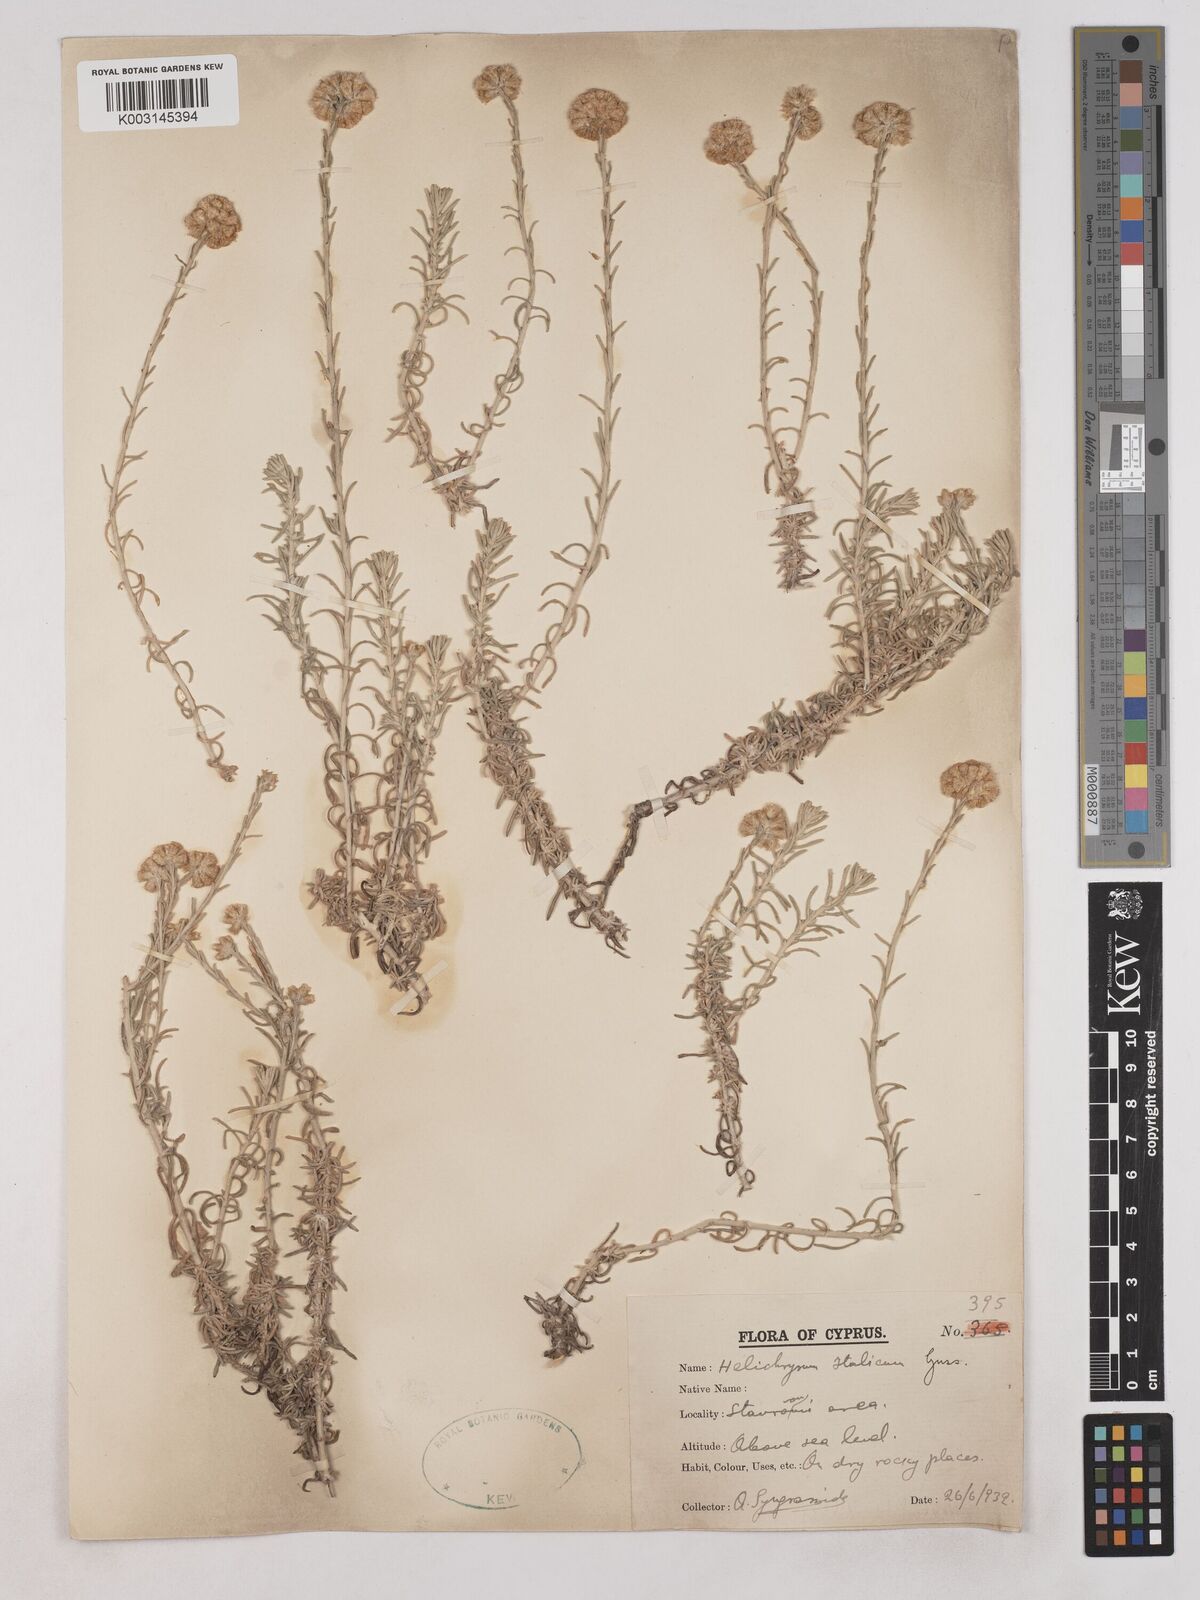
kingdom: Plantae
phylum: Tracheophyta
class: Magnoliopsida
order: Asterales
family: Asteraceae
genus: Helichrysum
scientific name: Helichrysum italicum
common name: Curryplant
